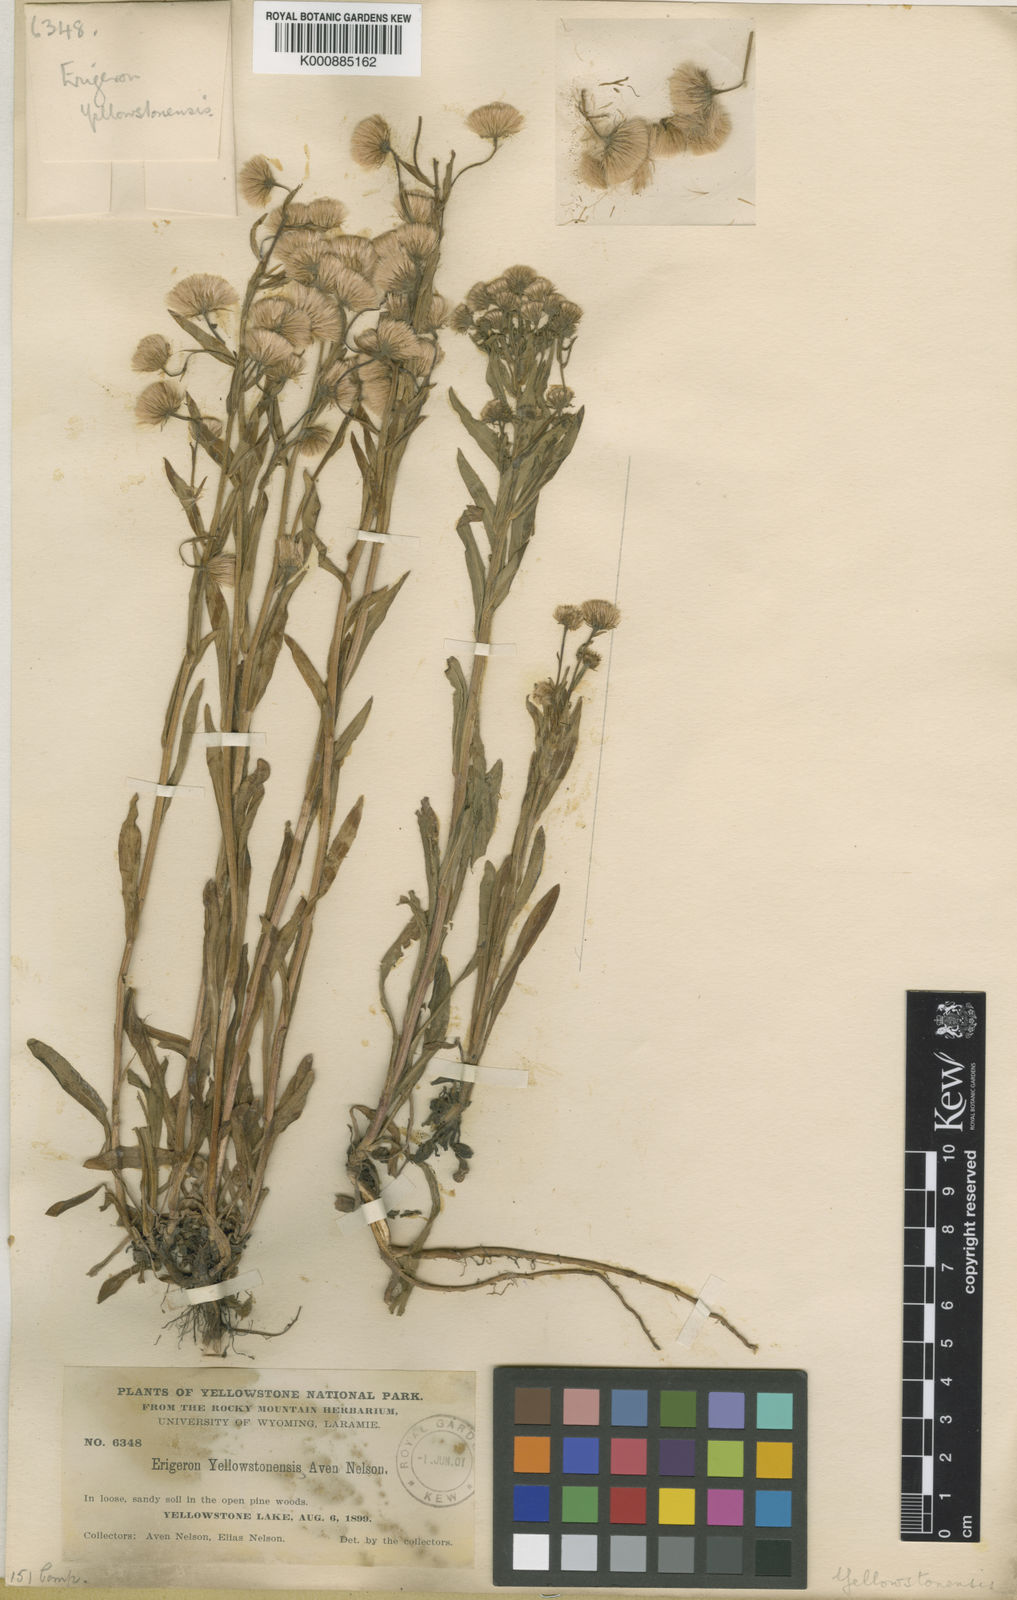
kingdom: Plantae
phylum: Tracheophyta
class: Magnoliopsida
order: Asterales
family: Asteraceae
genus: Erigeron
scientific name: Erigeron
